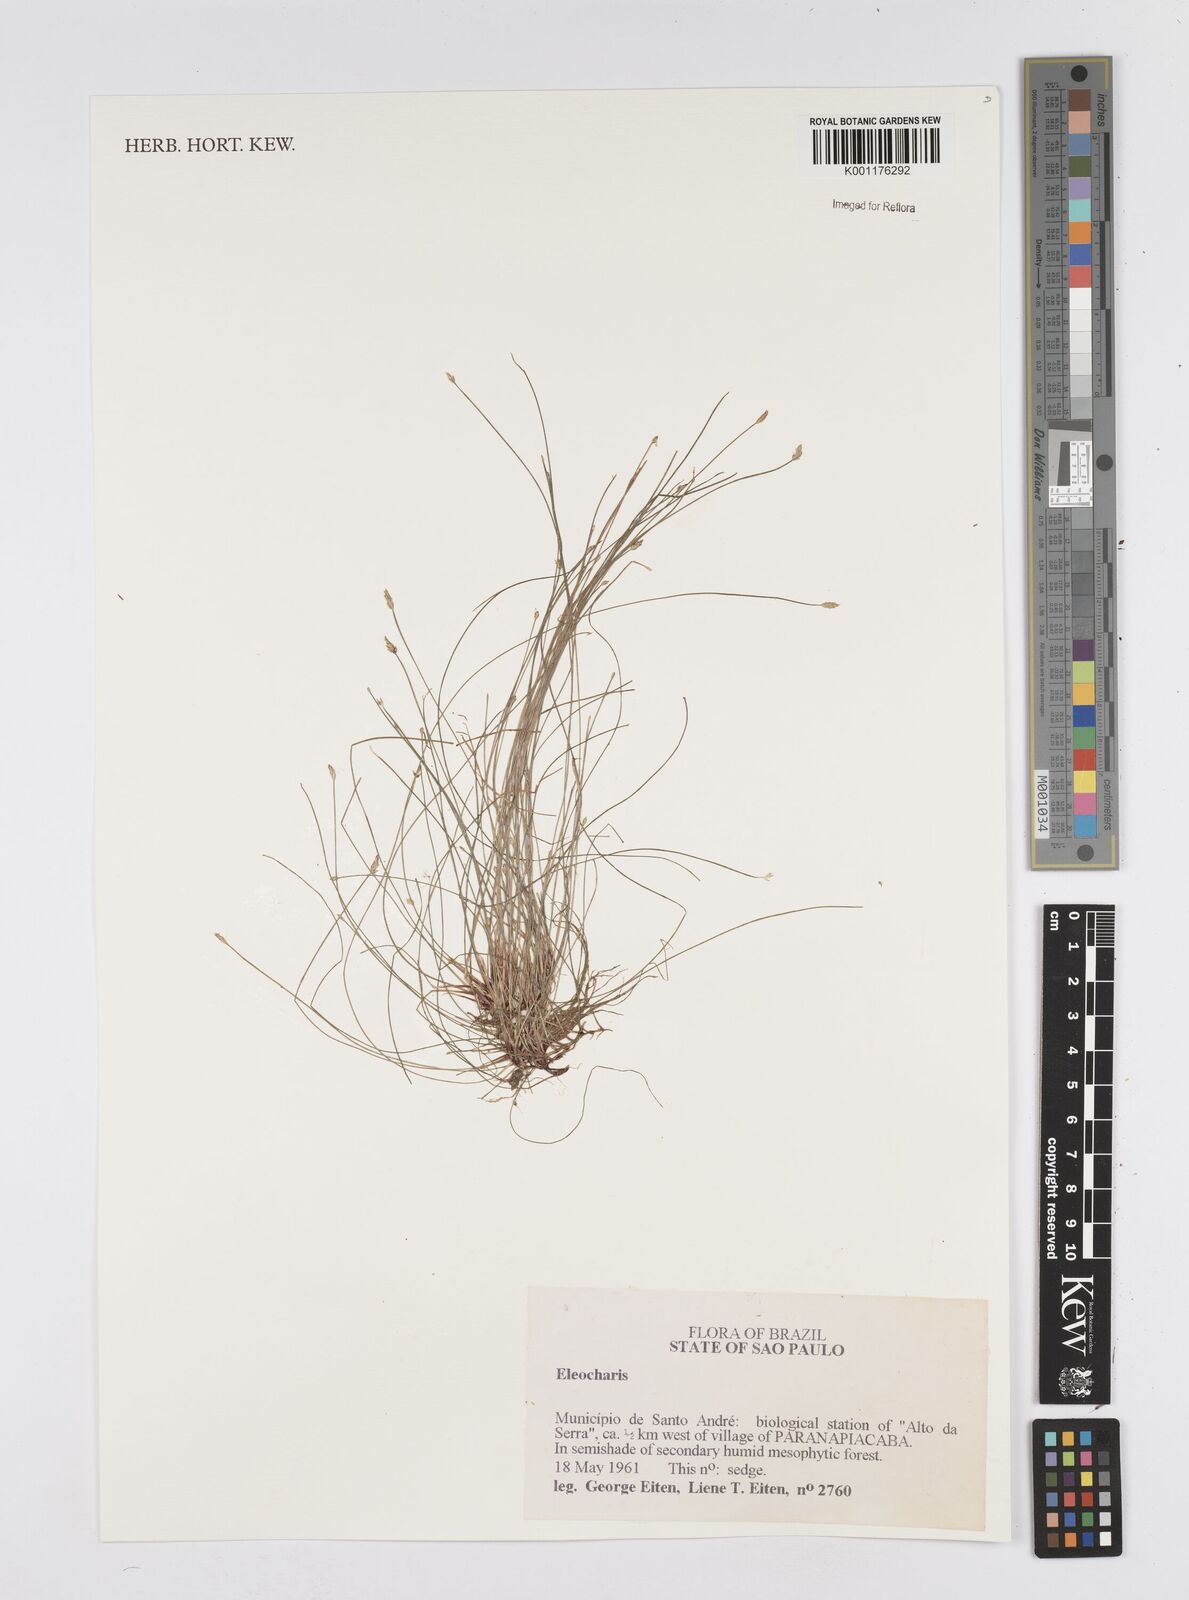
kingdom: Plantae
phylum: Tracheophyta
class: Liliopsida
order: Poales
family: Cyperaceae
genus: Eleocharis
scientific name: Eleocharis
